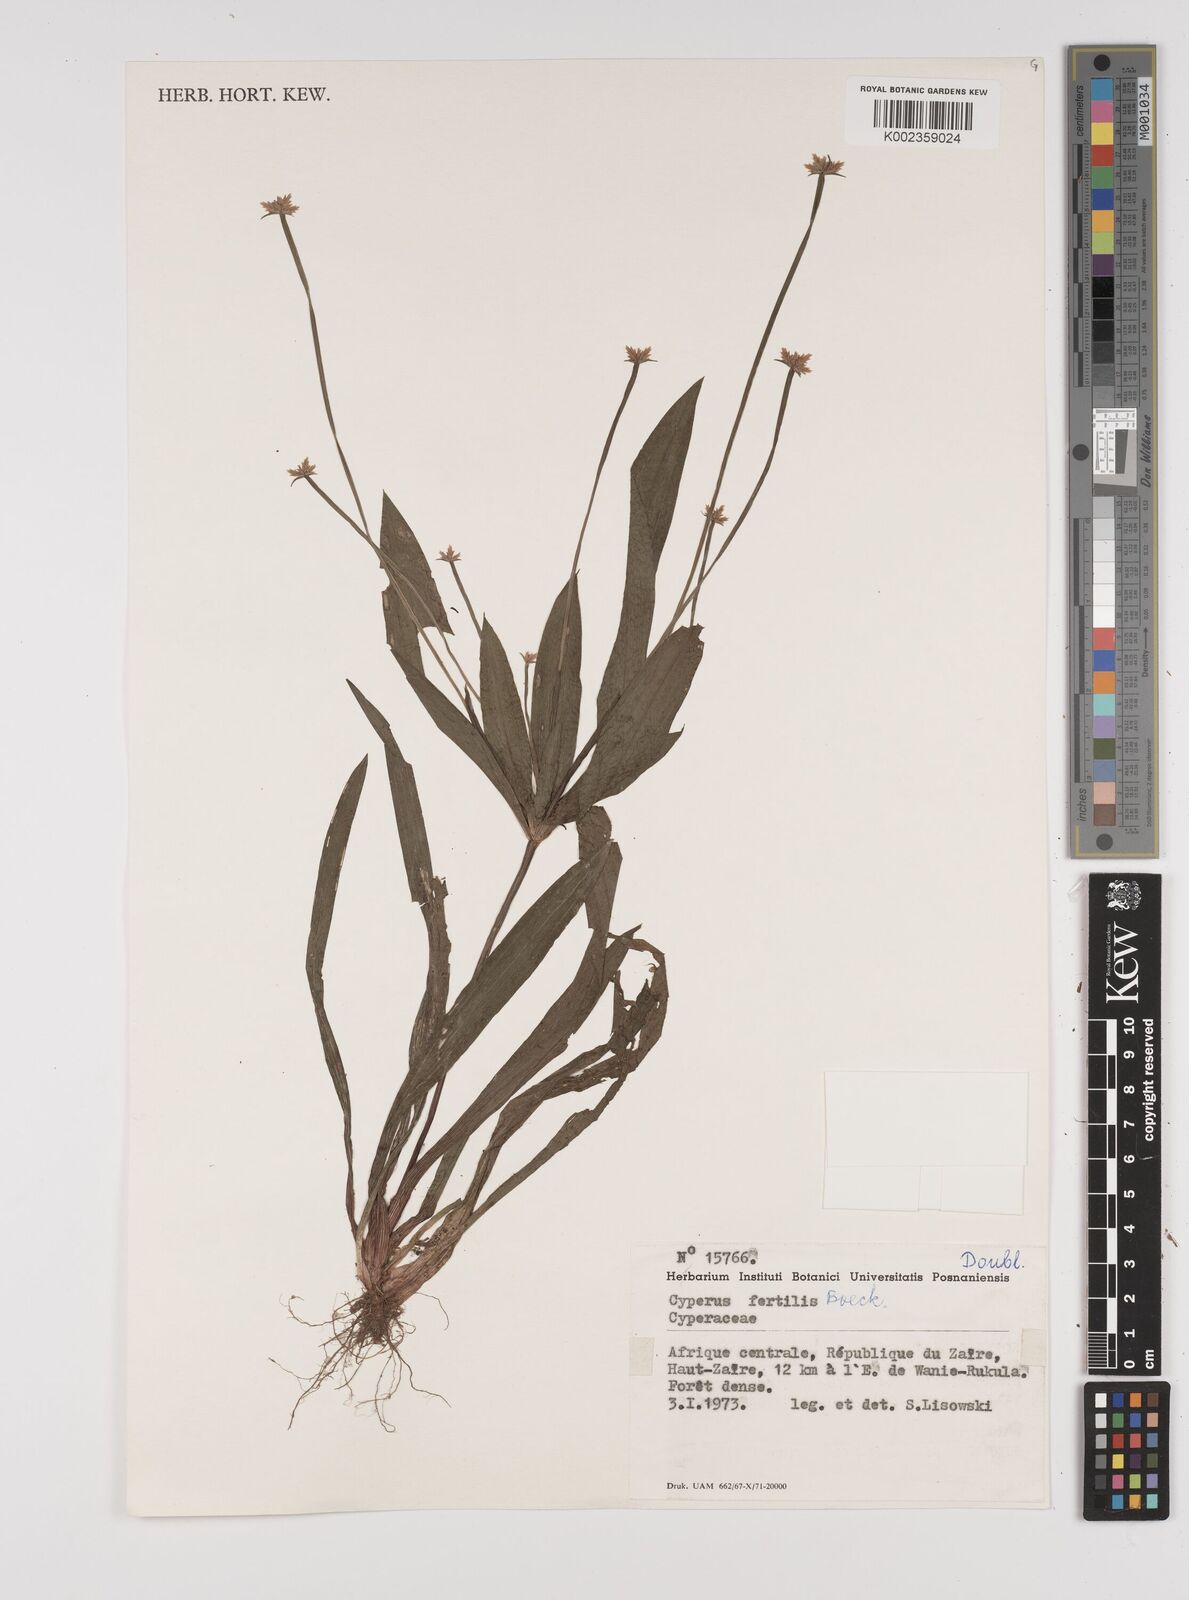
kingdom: Plantae
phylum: Tracheophyta
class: Liliopsida
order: Poales
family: Cyperaceae
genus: Cyperus
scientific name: Cyperus fertilis
